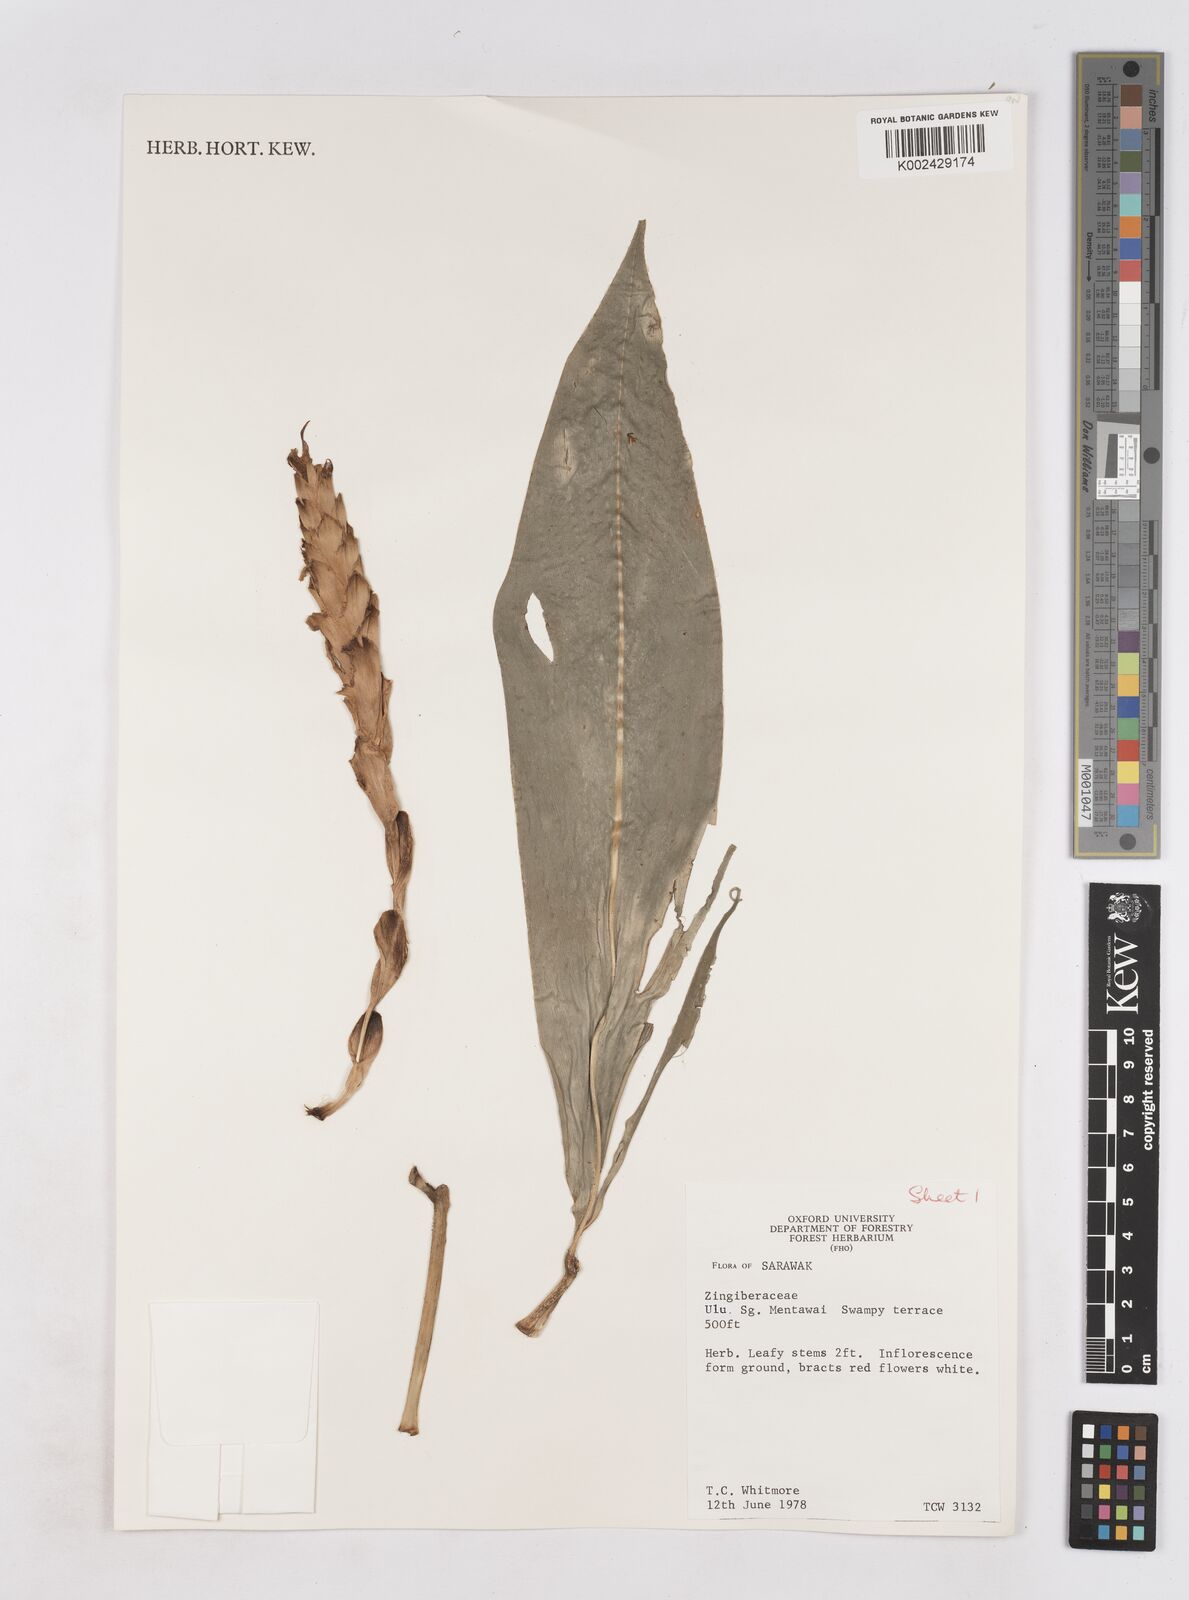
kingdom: Plantae
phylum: Tracheophyta
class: Liliopsida
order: Zingiberales
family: Zingiberaceae
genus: Zingiber
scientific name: Zingiber
